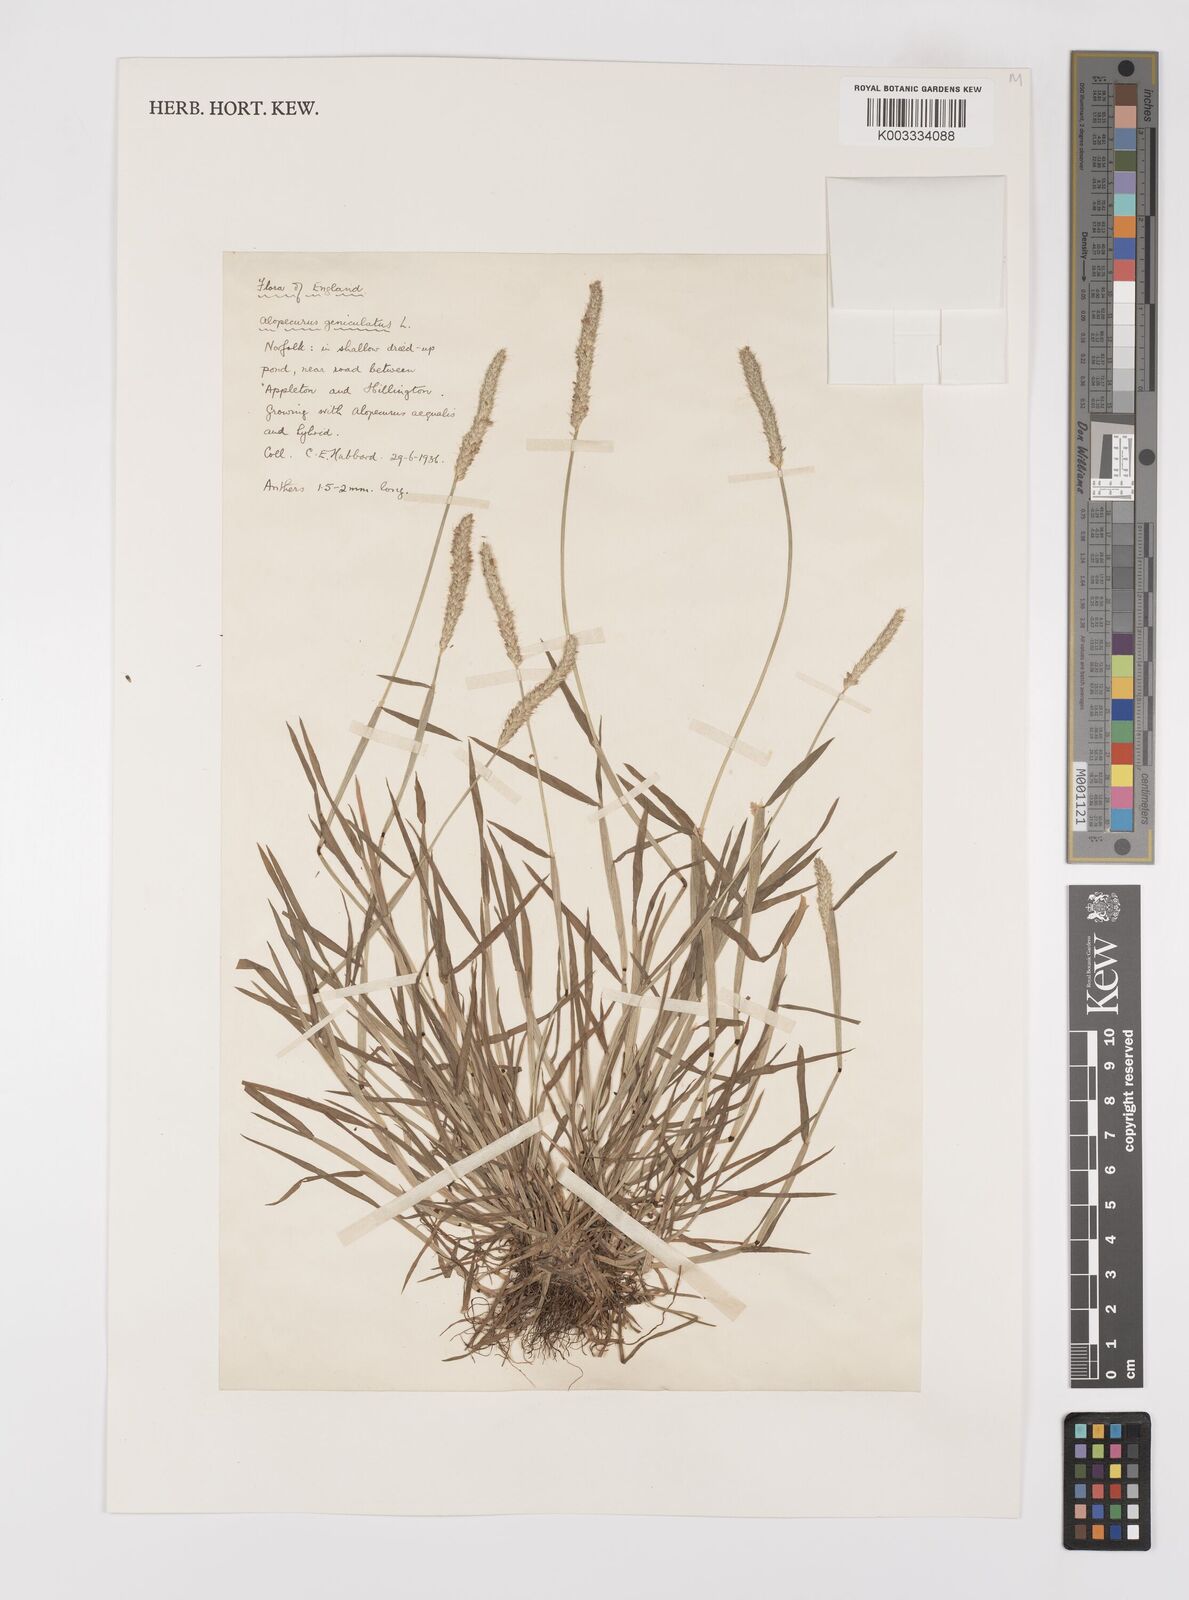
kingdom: Plantae
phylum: Tracheophyta
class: Liliopsida
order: Poales
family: Poaceae
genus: Alopecurus
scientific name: Alopecurus geniculatus
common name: Water foxtail
